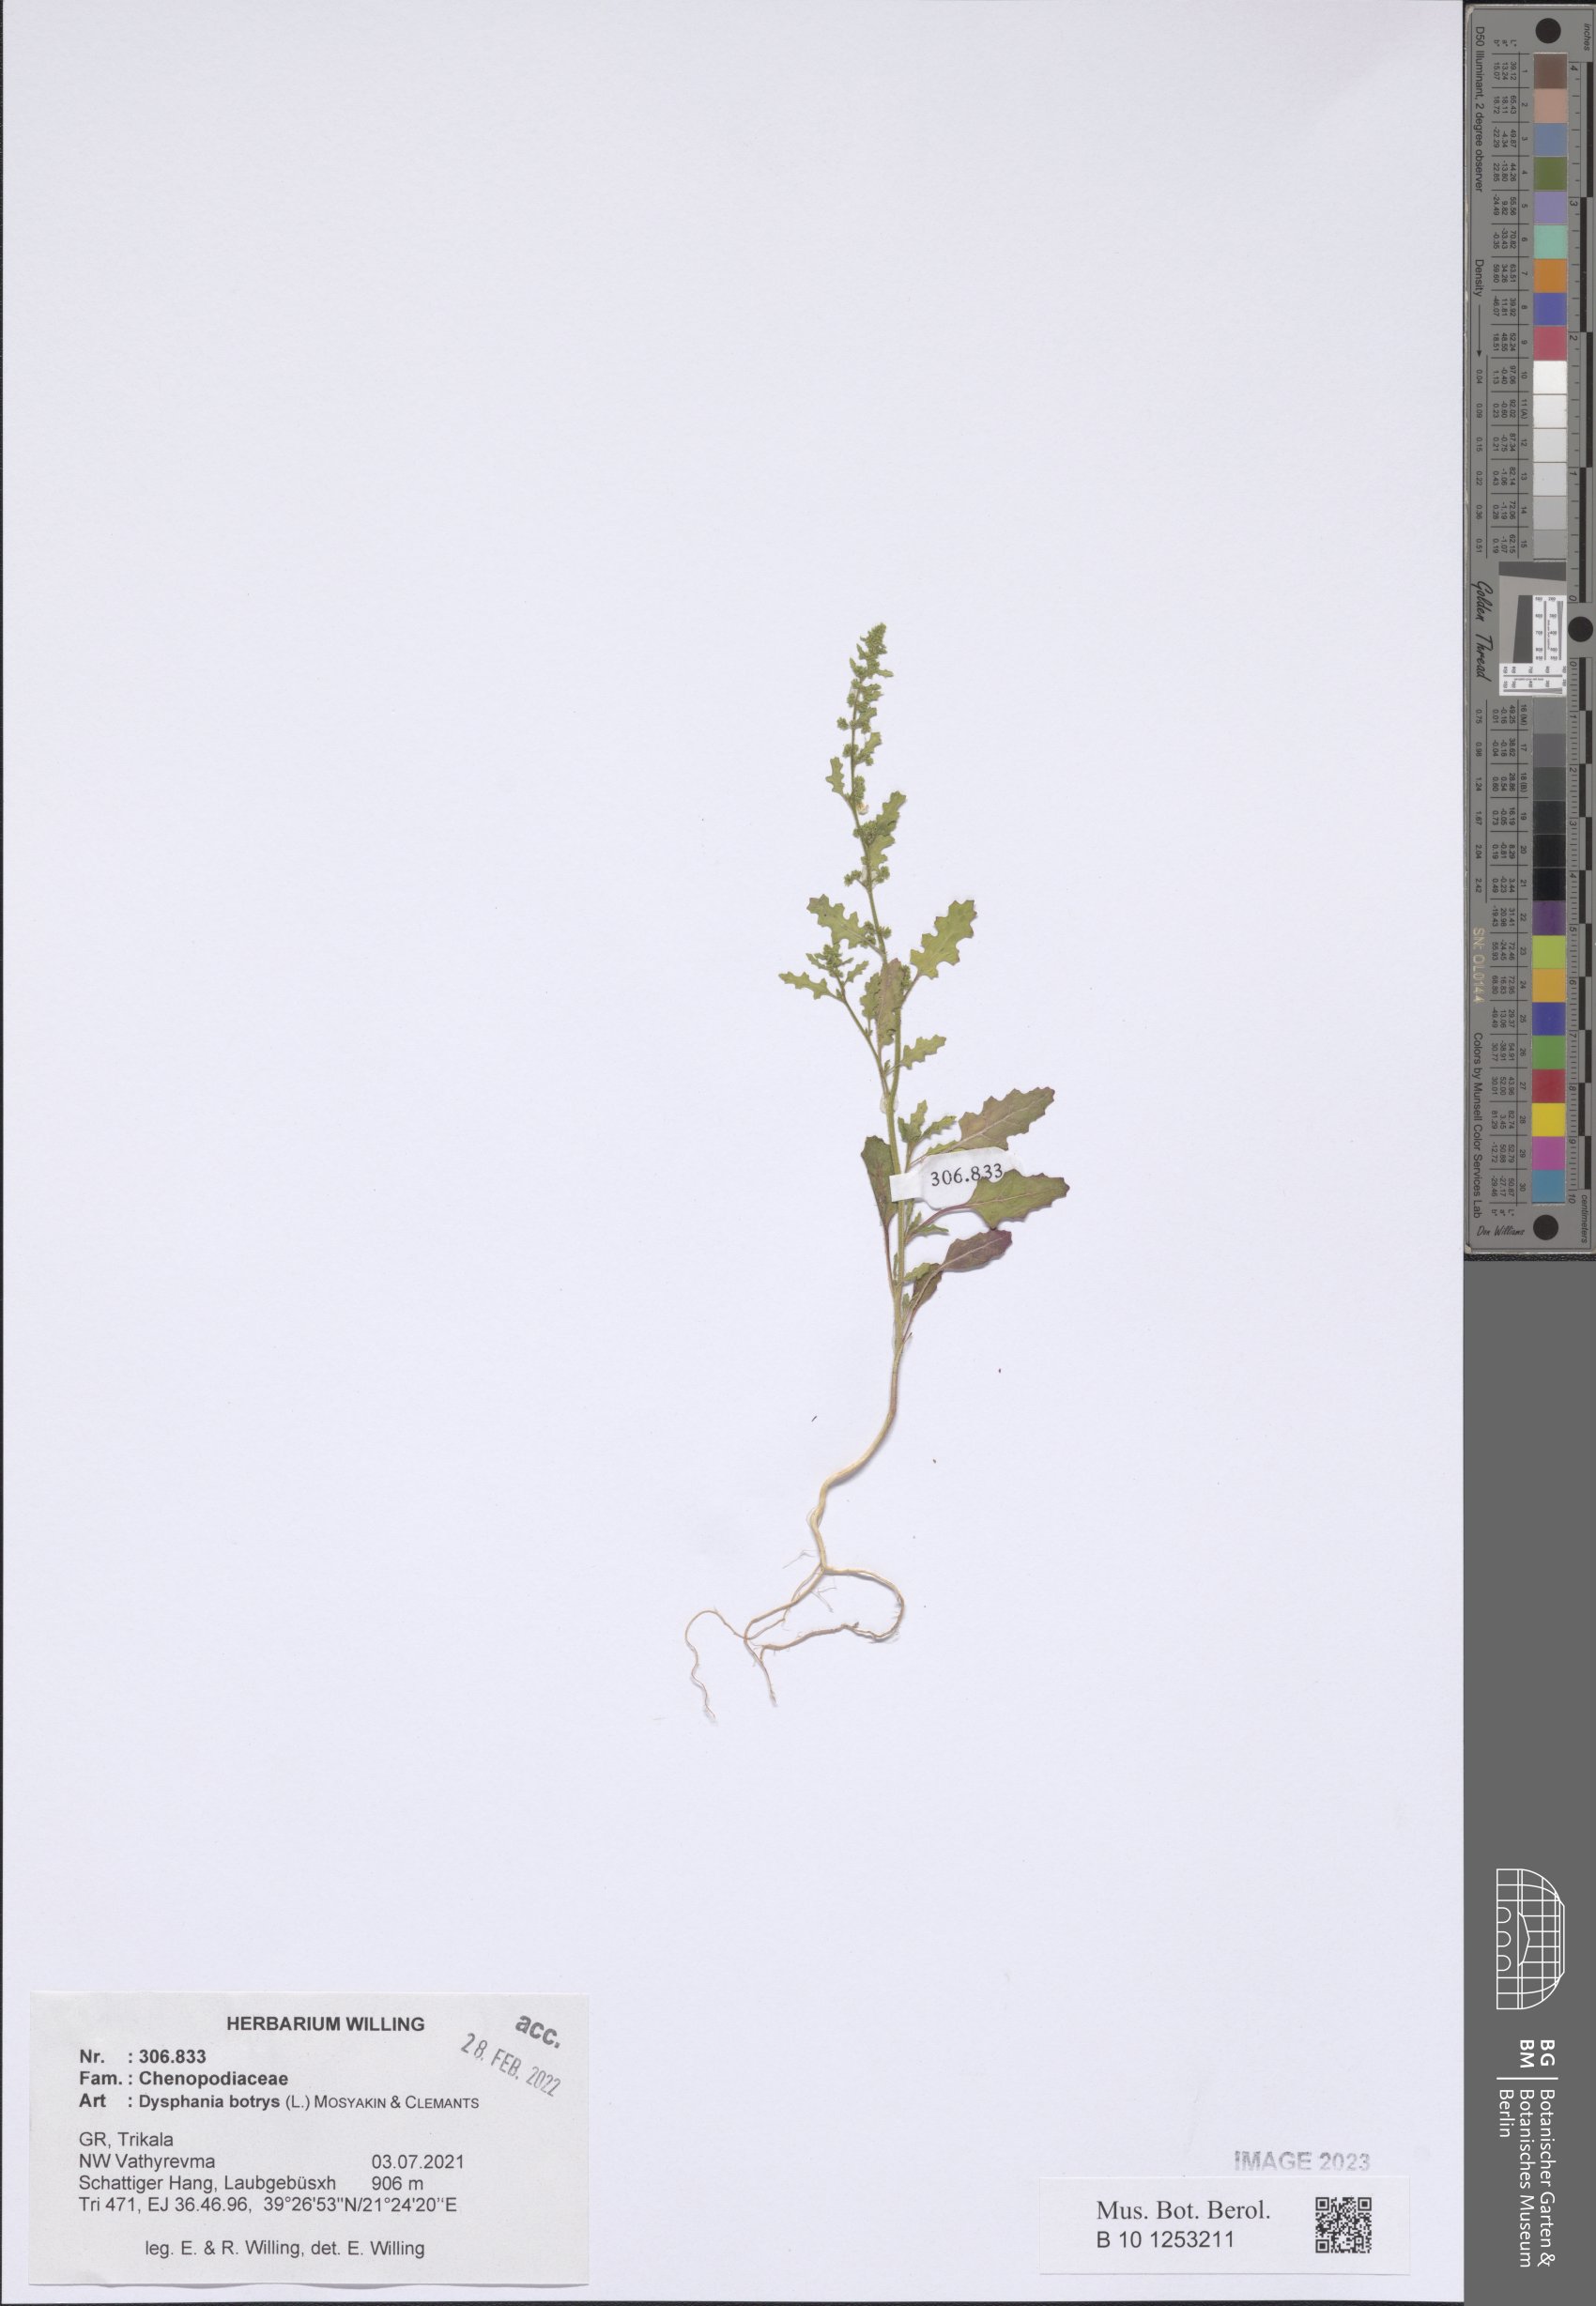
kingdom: Plantae
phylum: Tracheophyta
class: Magnoliopsida
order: Caryophyllales
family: Amaranthaceae
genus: Dysphania
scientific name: Dysphania botrys
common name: Feather-geranium
